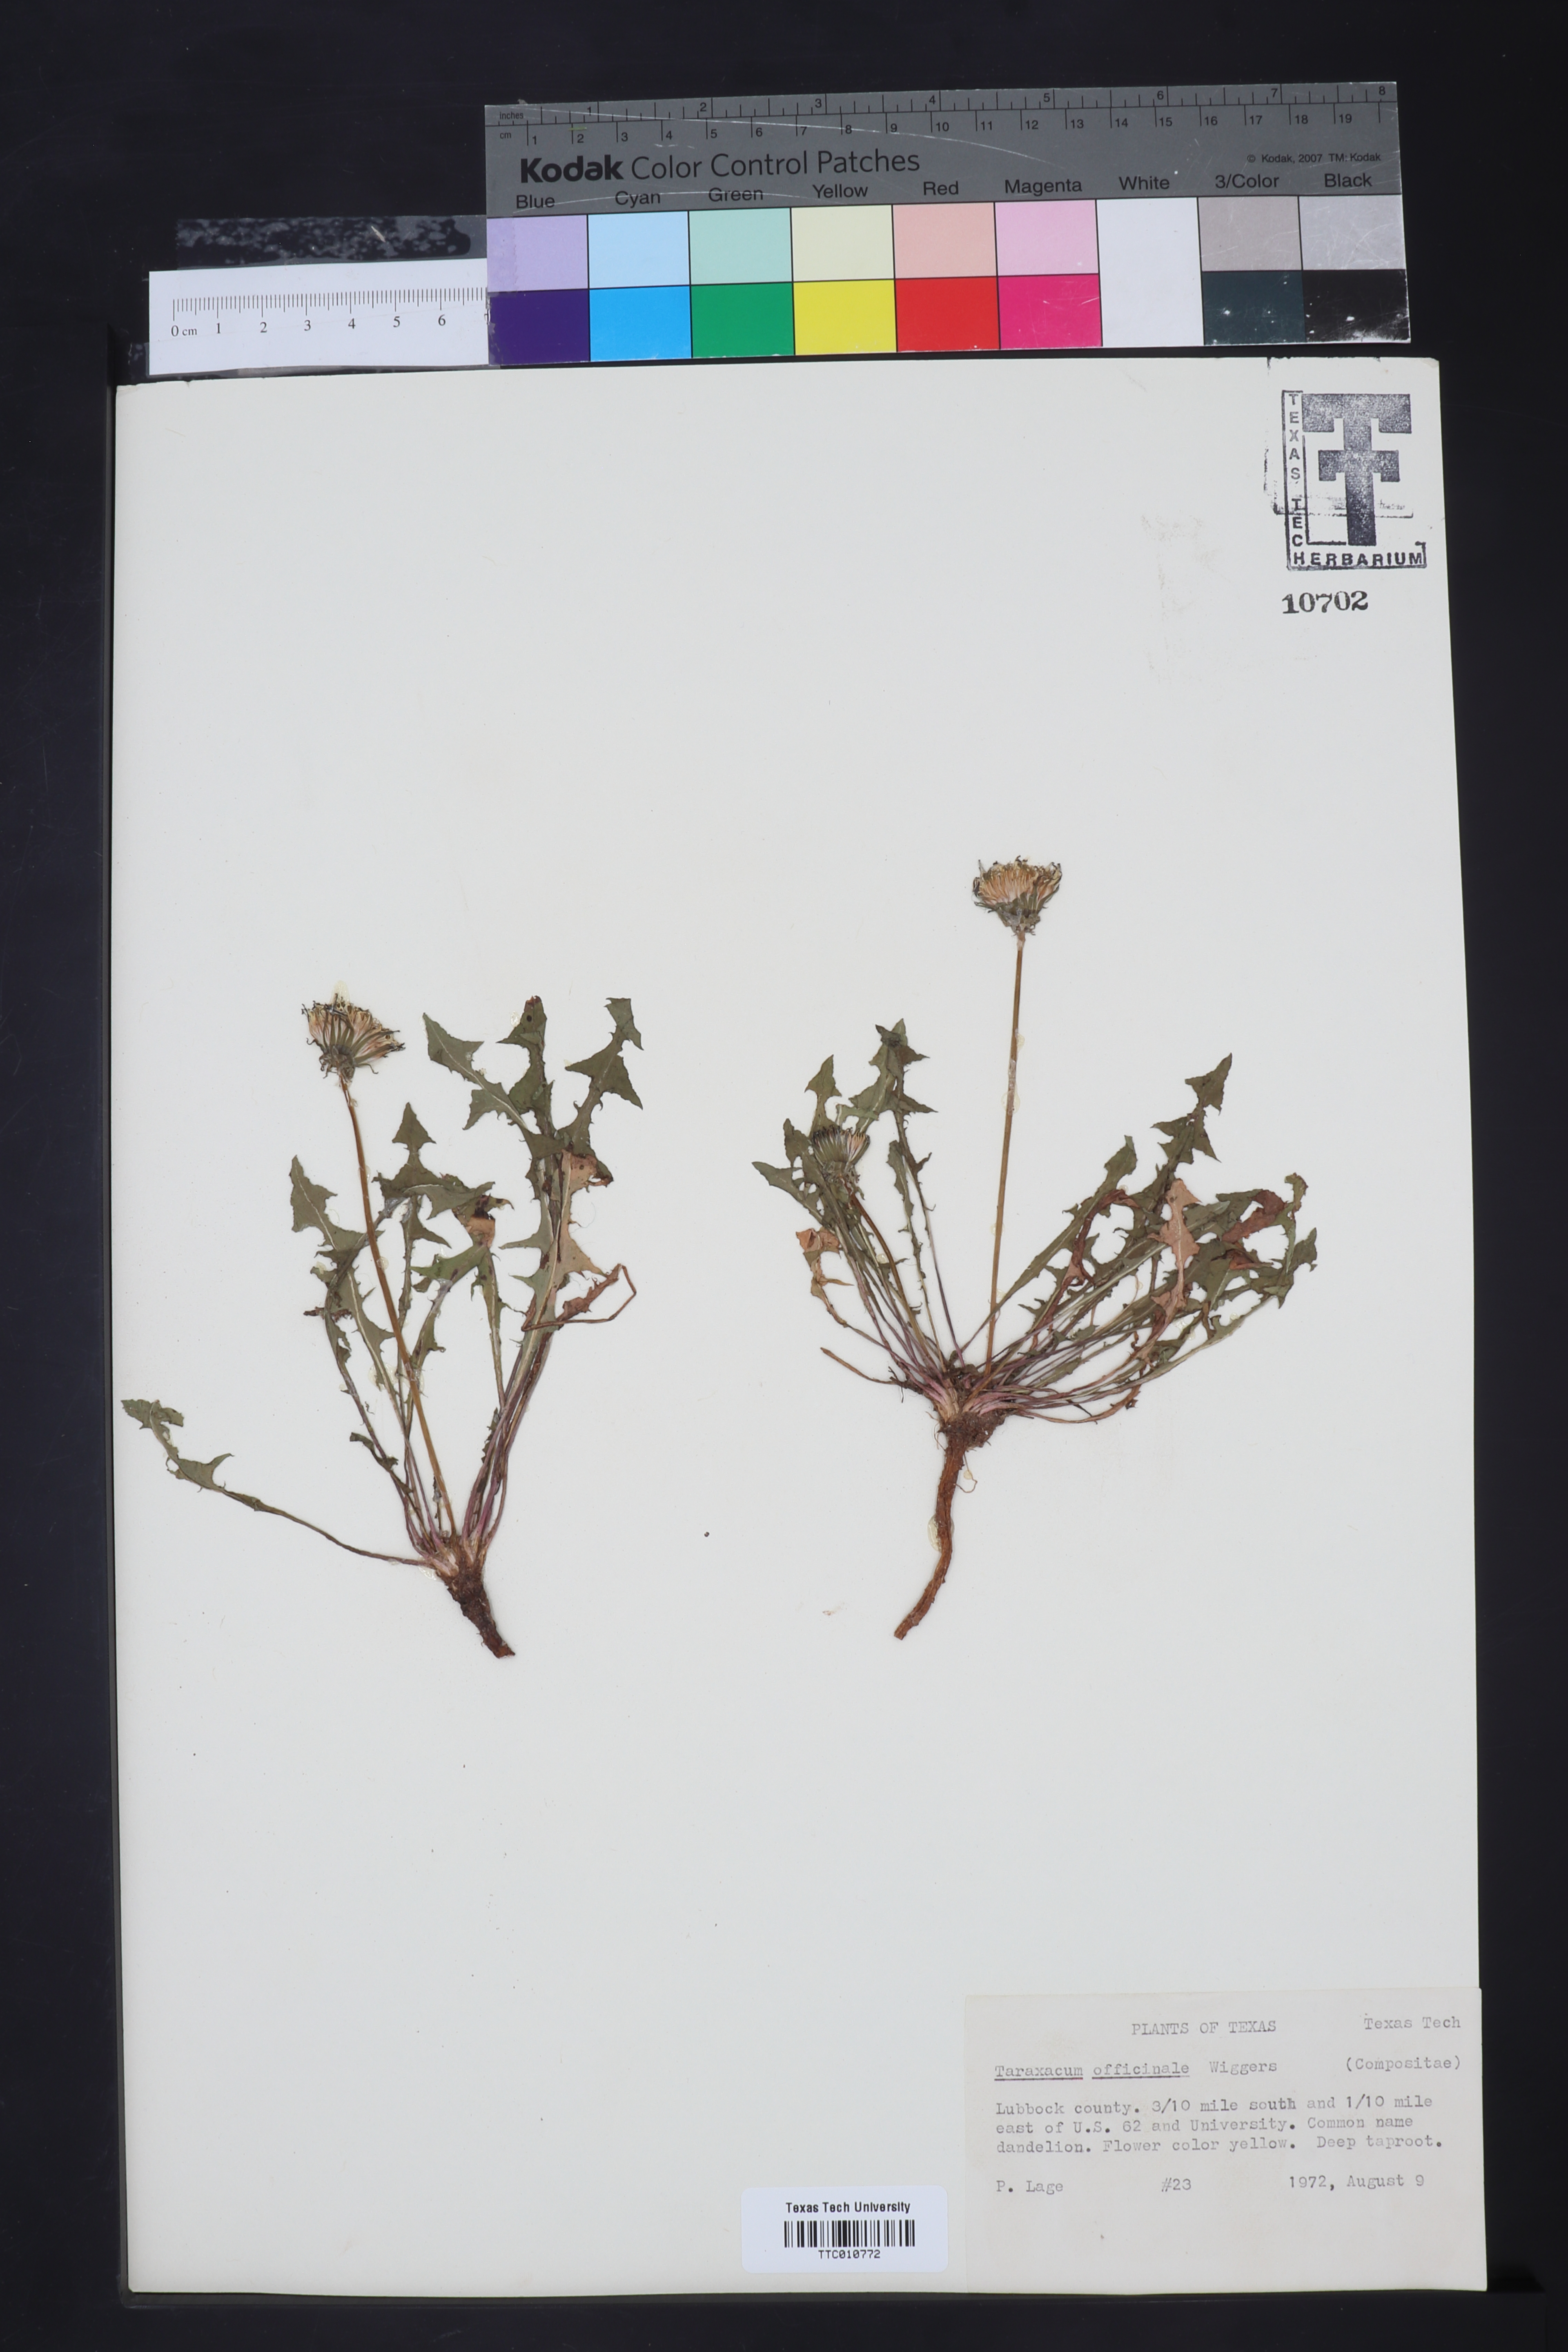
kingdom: Plantae
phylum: Tracheophyta
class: Magnoliopsida
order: Asterales
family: Asteraceae
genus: Taraxacum
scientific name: Taraxacum officinale
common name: Common dandelion
